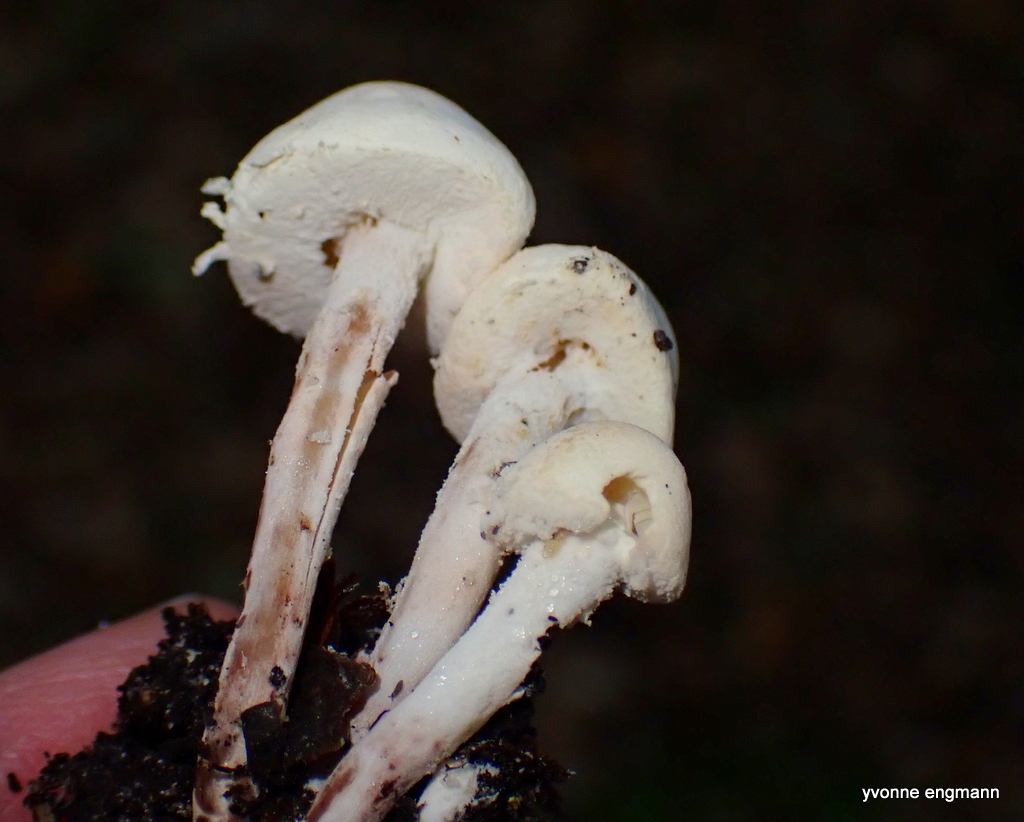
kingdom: Fungi
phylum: Basidiomycota
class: Agaricomycetes
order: Agaricales
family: Agaricaceae
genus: Cystolepiota
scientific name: Cystolepiota seminuda
